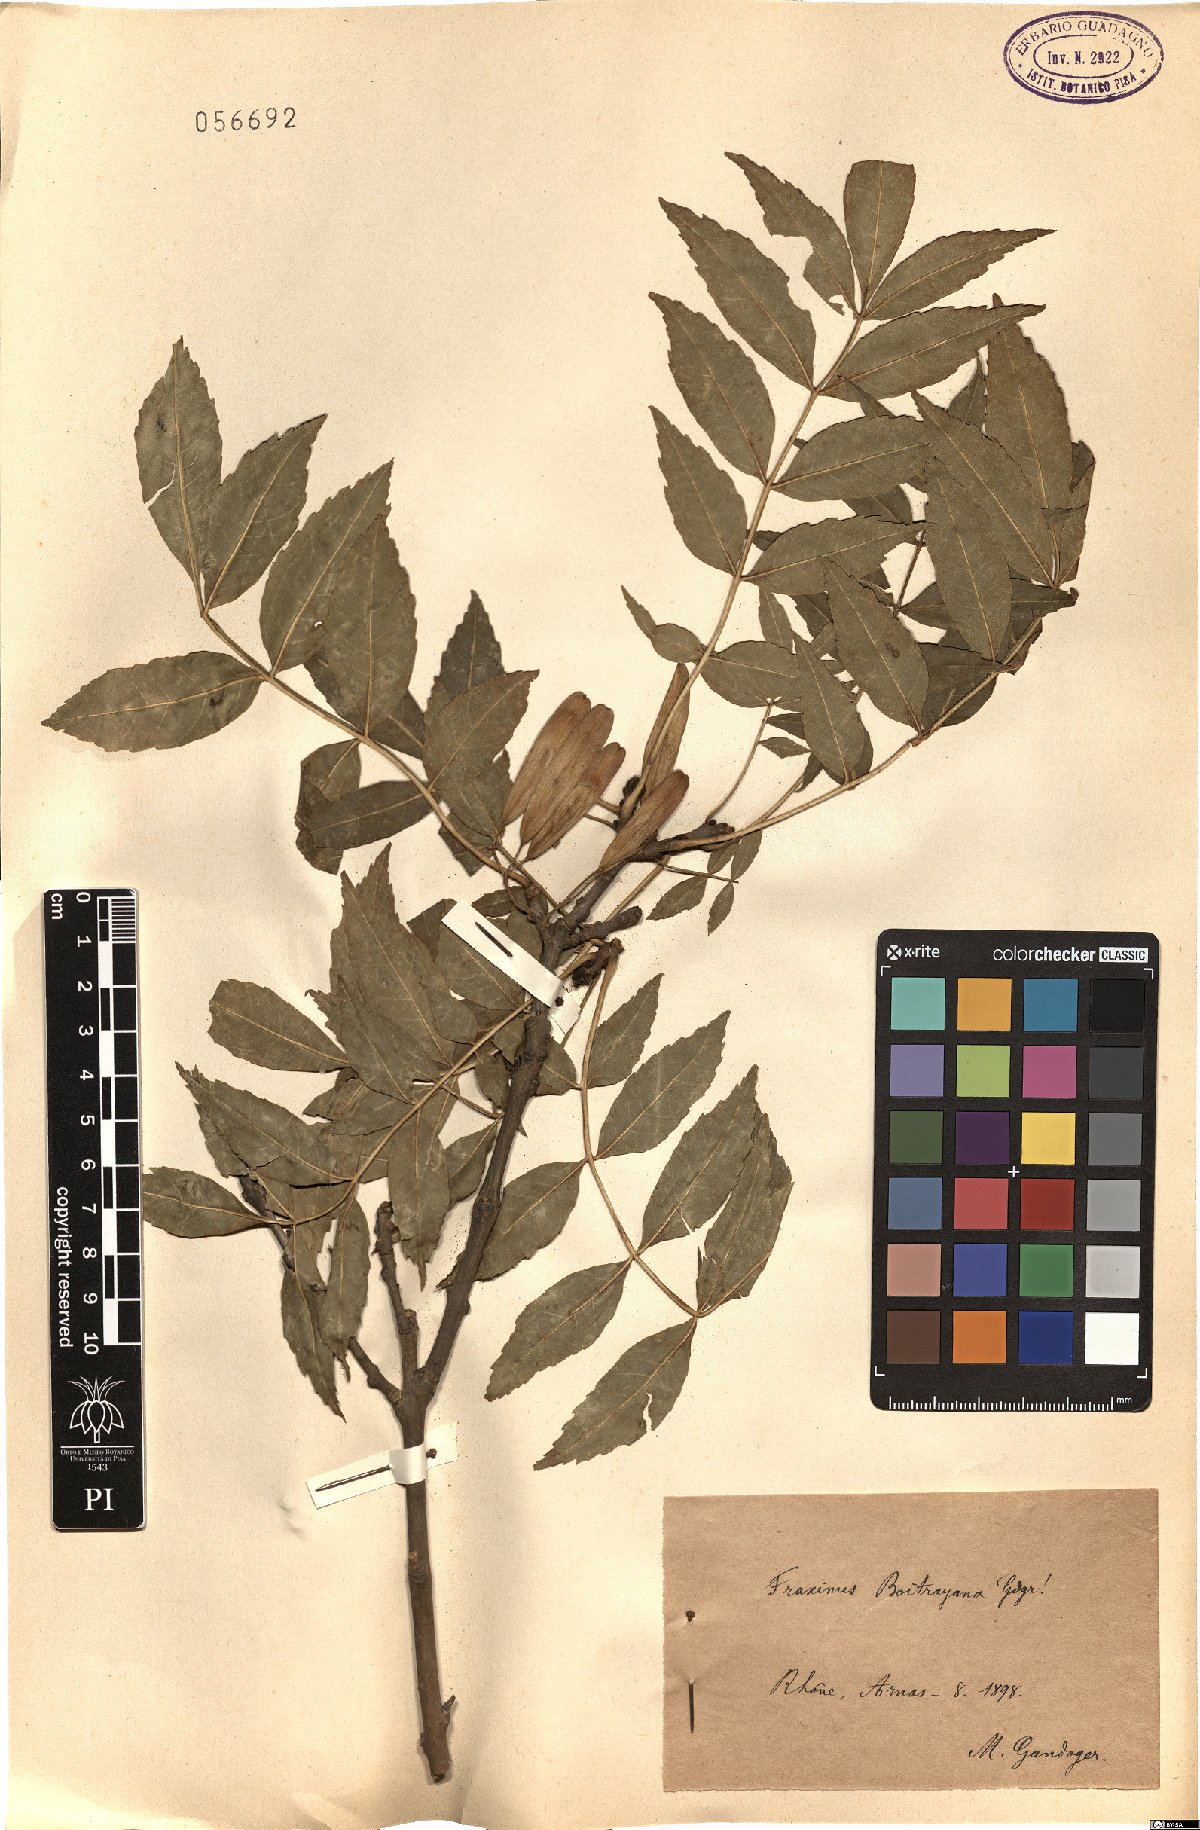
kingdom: Plantae
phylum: Tracheophyta
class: Magnoliopsida
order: Lamiales
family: Oleaceae
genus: Fraxinus
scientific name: Fraxinus excelsior
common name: European ash
